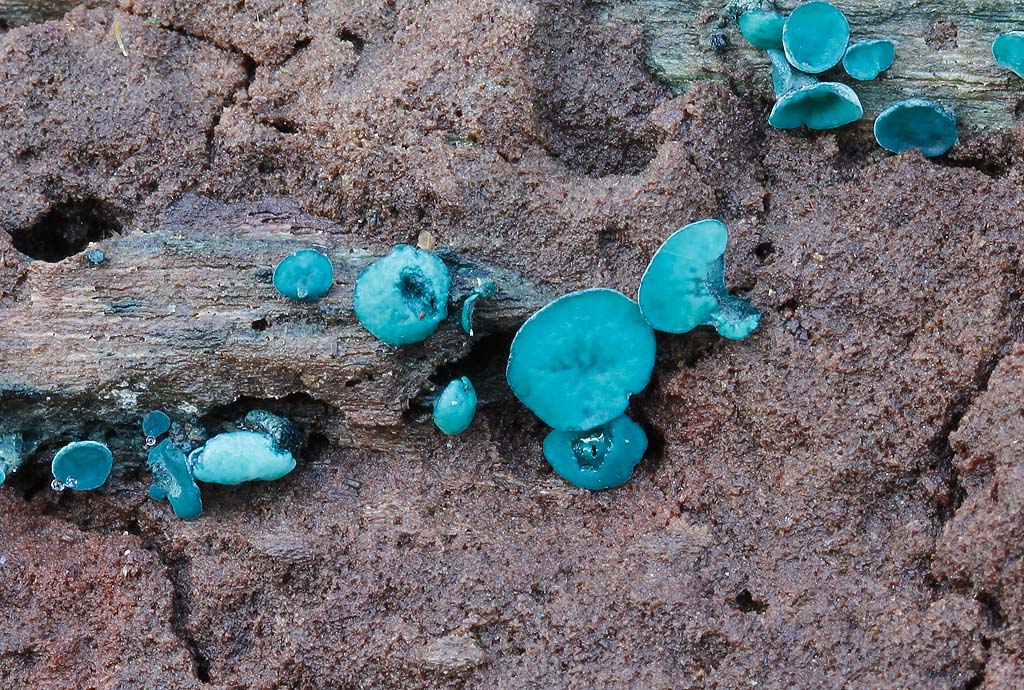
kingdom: Fungi
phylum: Ascomycota
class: Leotiomycetes
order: Helotiales
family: Chlorociboriaceae
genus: Chlorociboria
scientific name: Chlorociboria aeruginascens
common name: almindelig grønskive
